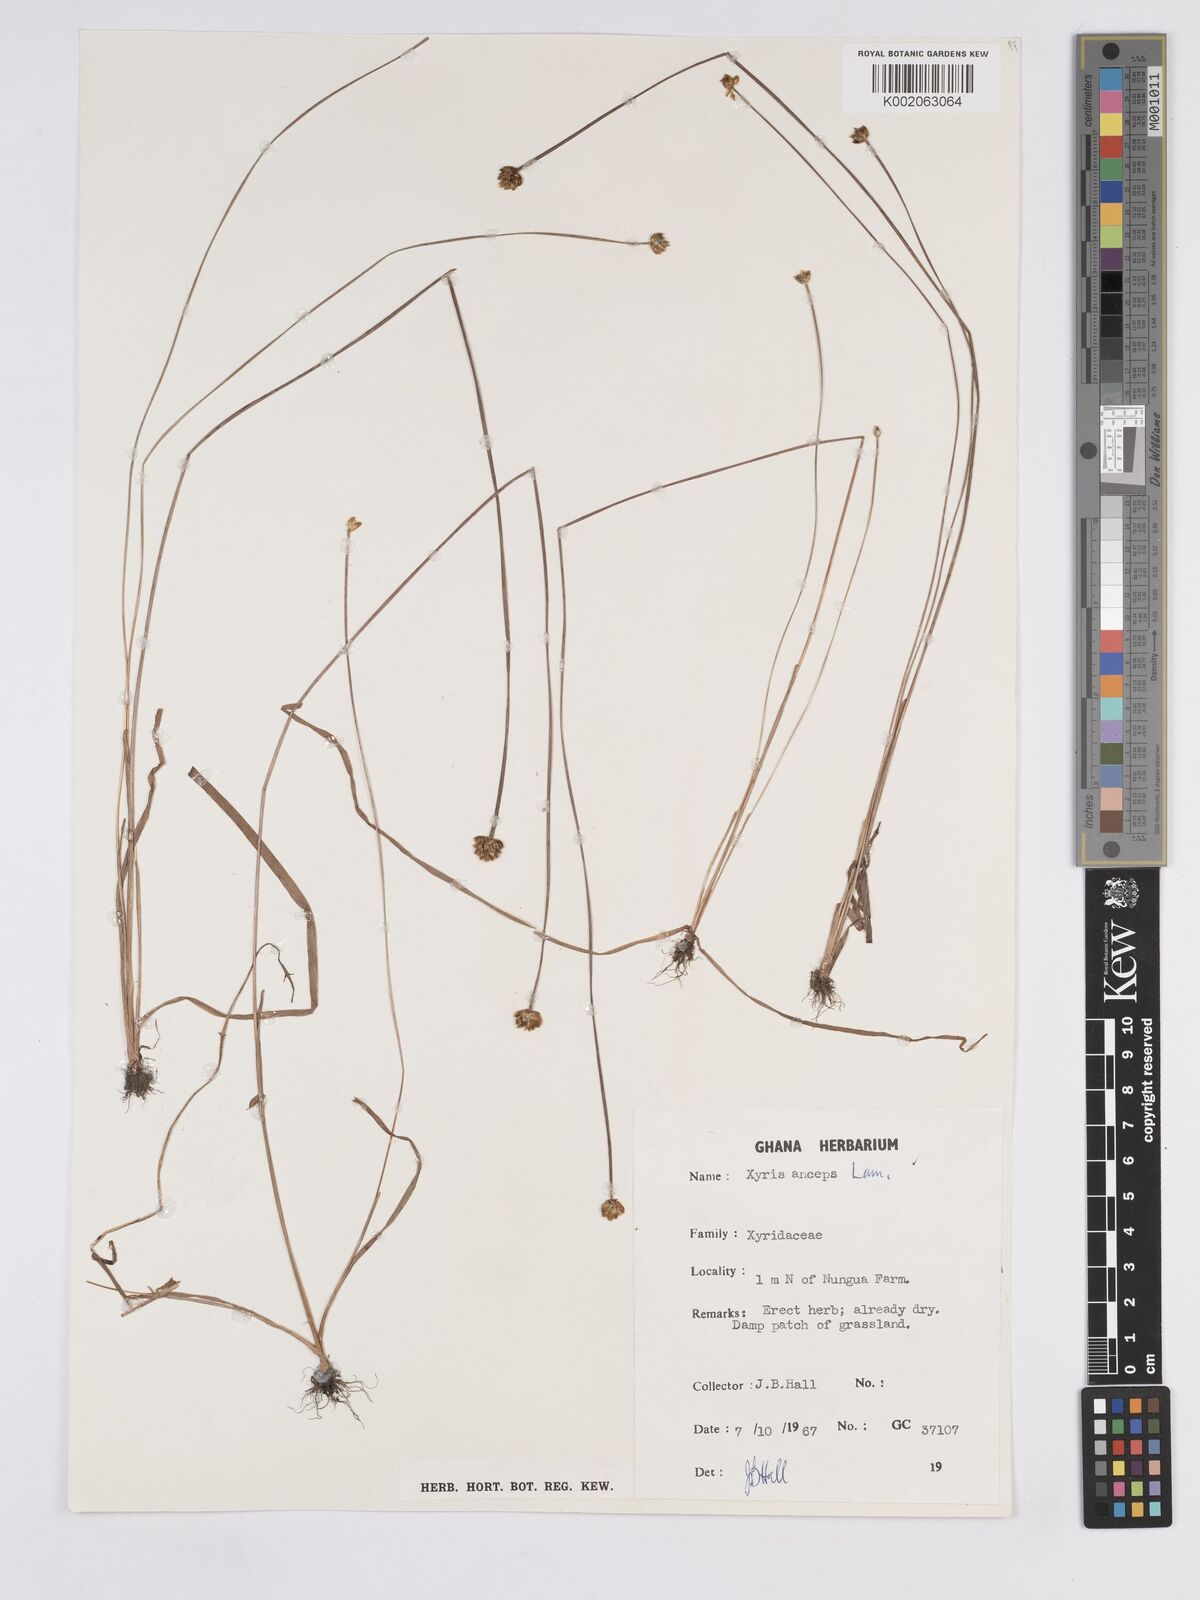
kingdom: Plantae
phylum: Tracheophyta
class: Liliopsida
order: Poales
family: Xyridaceae
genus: Xyris
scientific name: Xyris anceps
